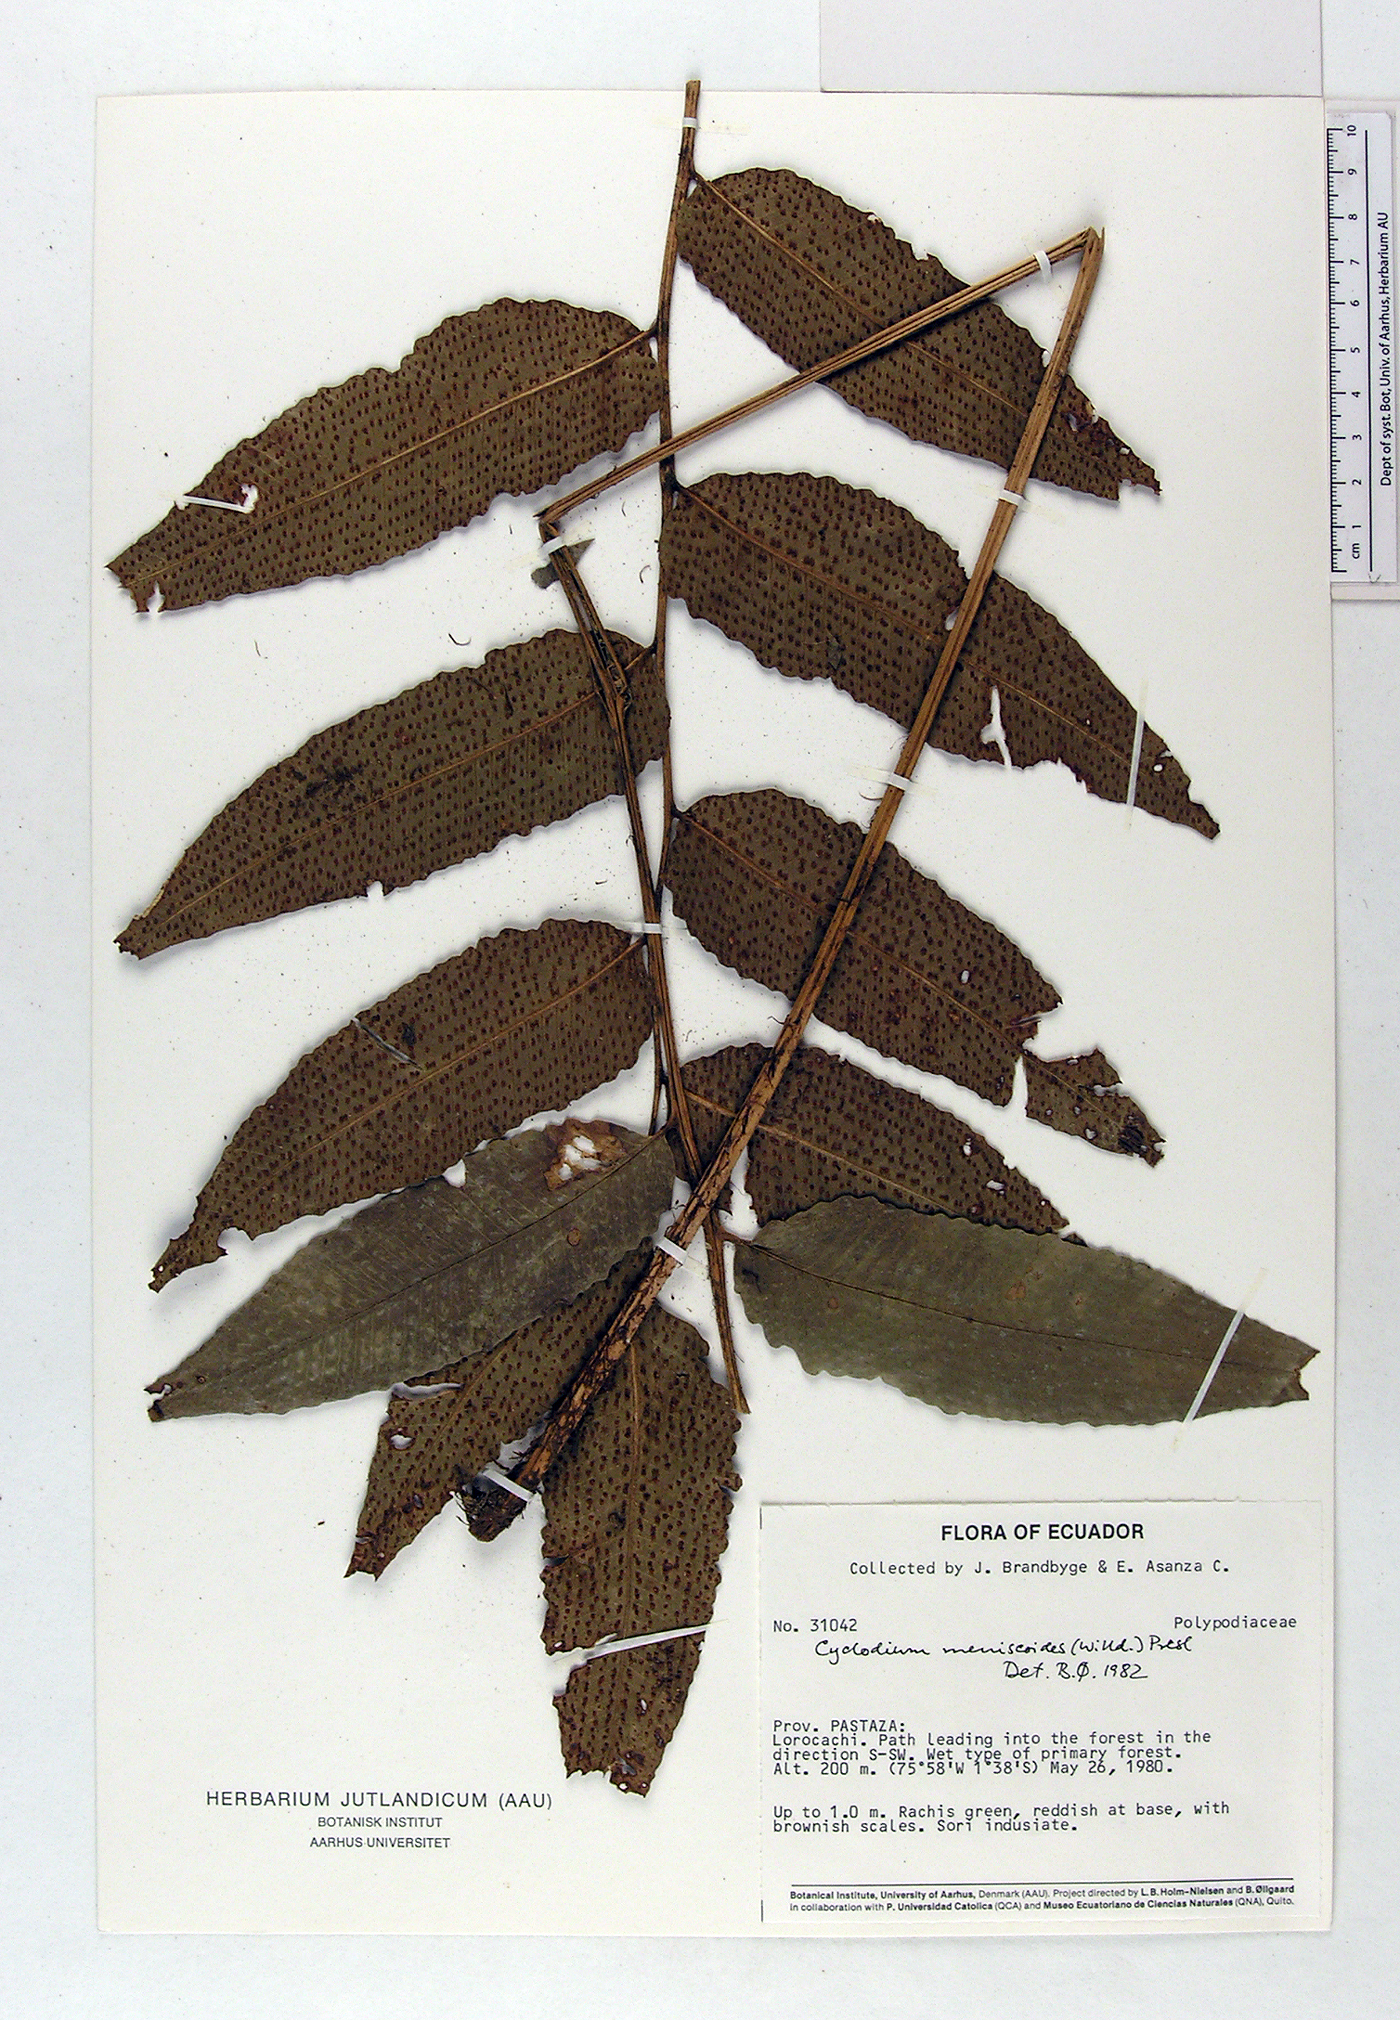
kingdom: Plantae
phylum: Tracheophyta
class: Polypodiopsida
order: Polypodiales
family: Dryopteridaceae
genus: Cyclodium
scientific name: Cyclodium meniscioides
